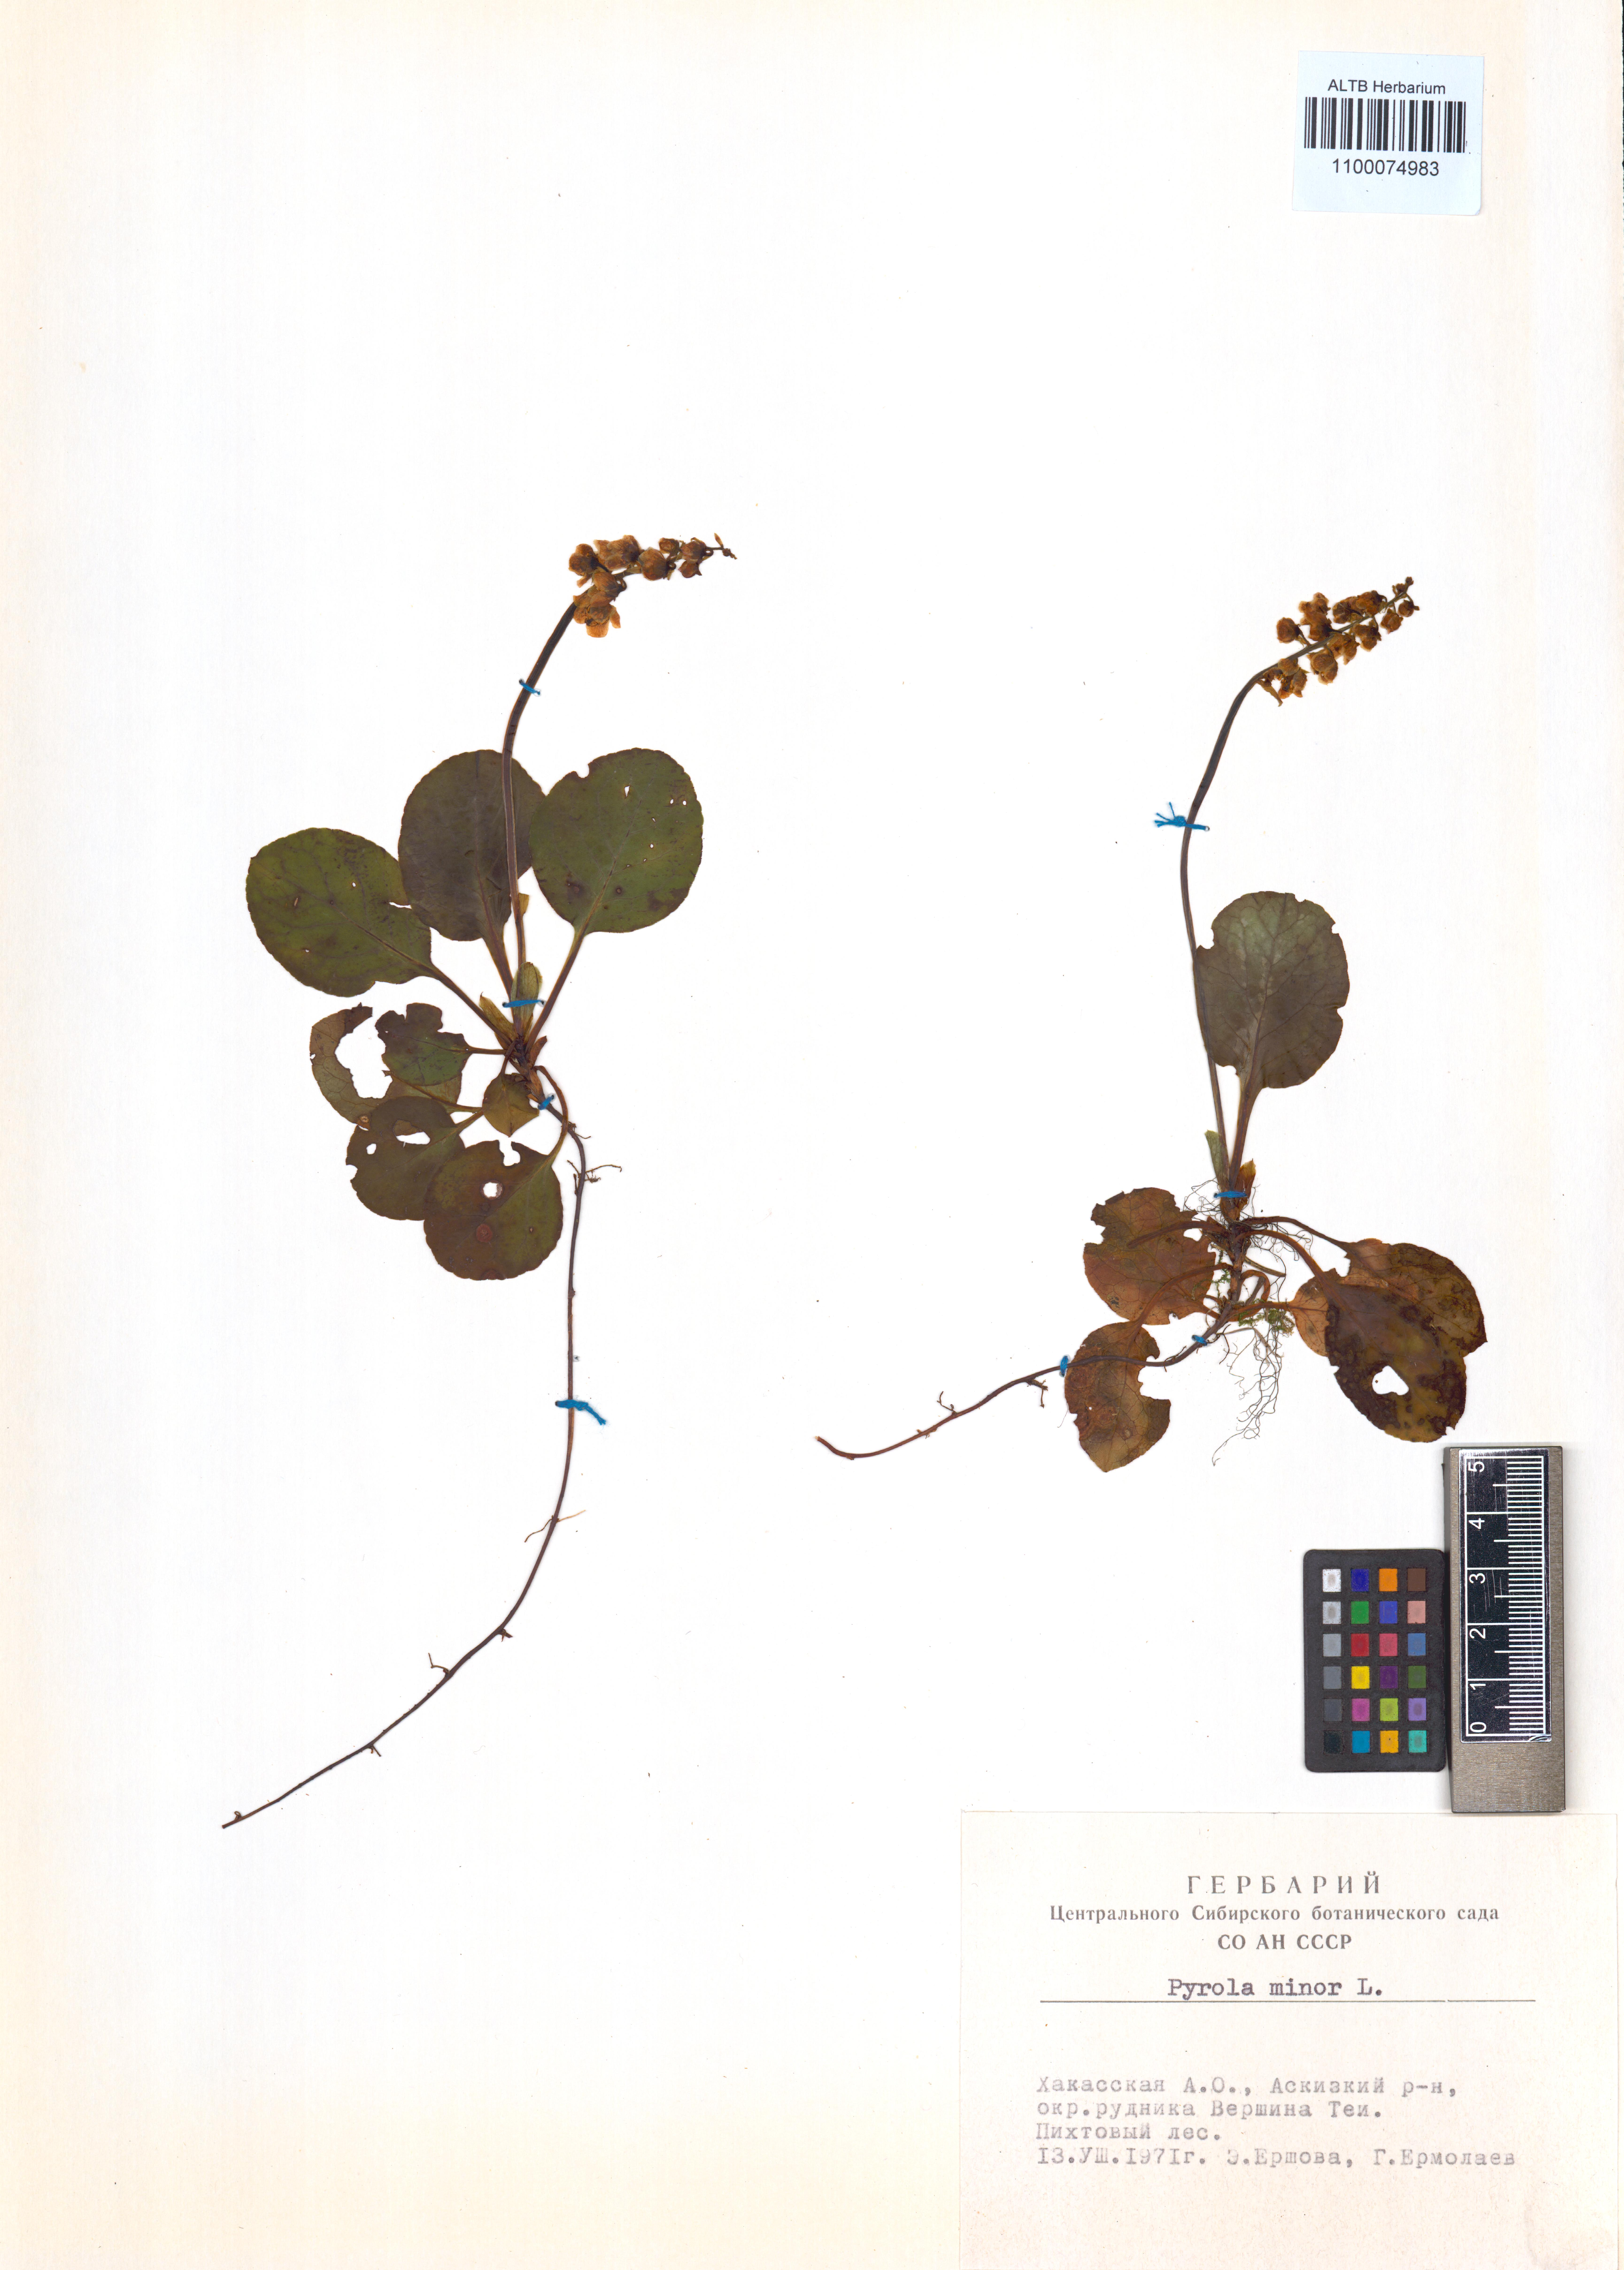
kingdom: Plantae
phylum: Tracheophyta
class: Magnoliopsida
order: Ericales
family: Ericaceae
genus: Pyrola
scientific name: Pyrola minor
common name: Common wintergreen
